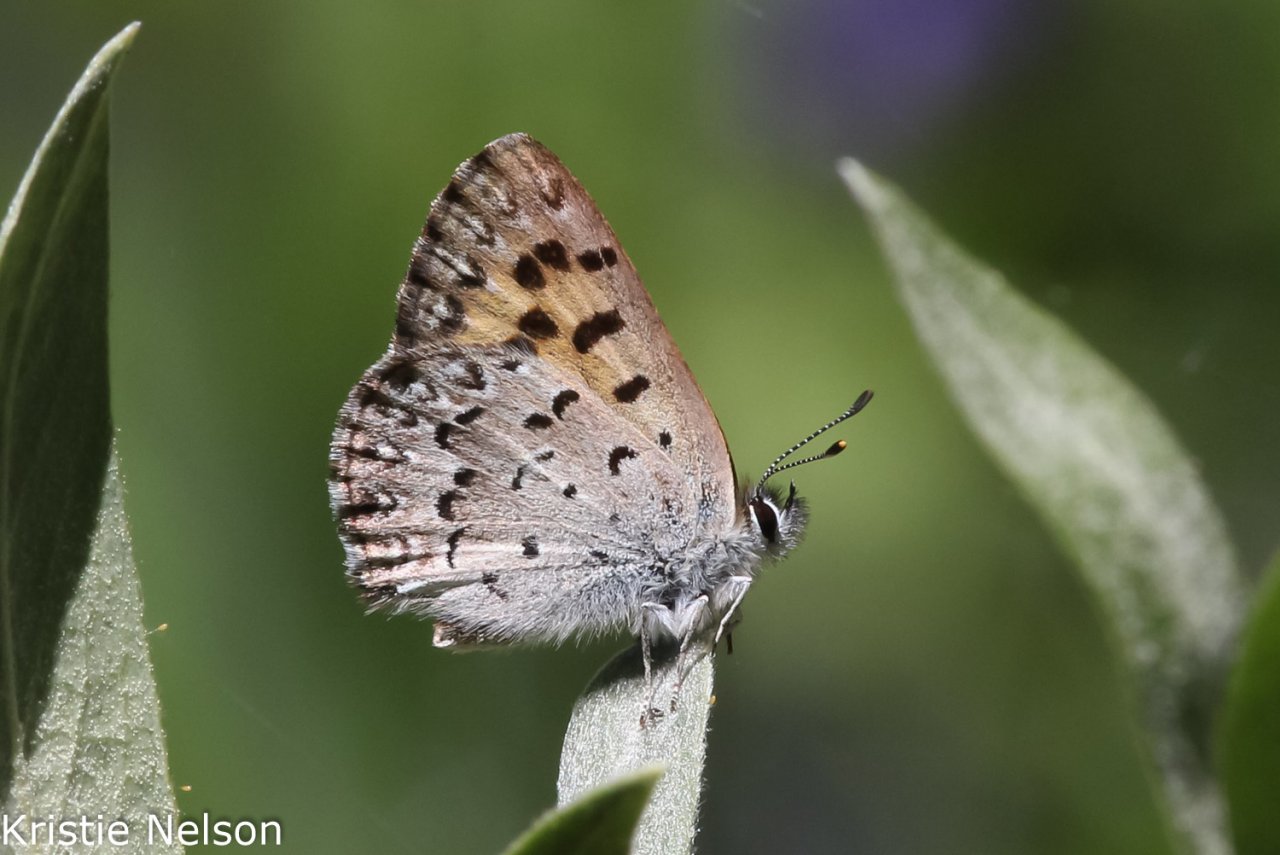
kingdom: Animalia
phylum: Arthropoda
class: Insecta
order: Lepidoptera
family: Lycaenidae
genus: Lycaena
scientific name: Lycaena mariposa
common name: Mariposa Copper
